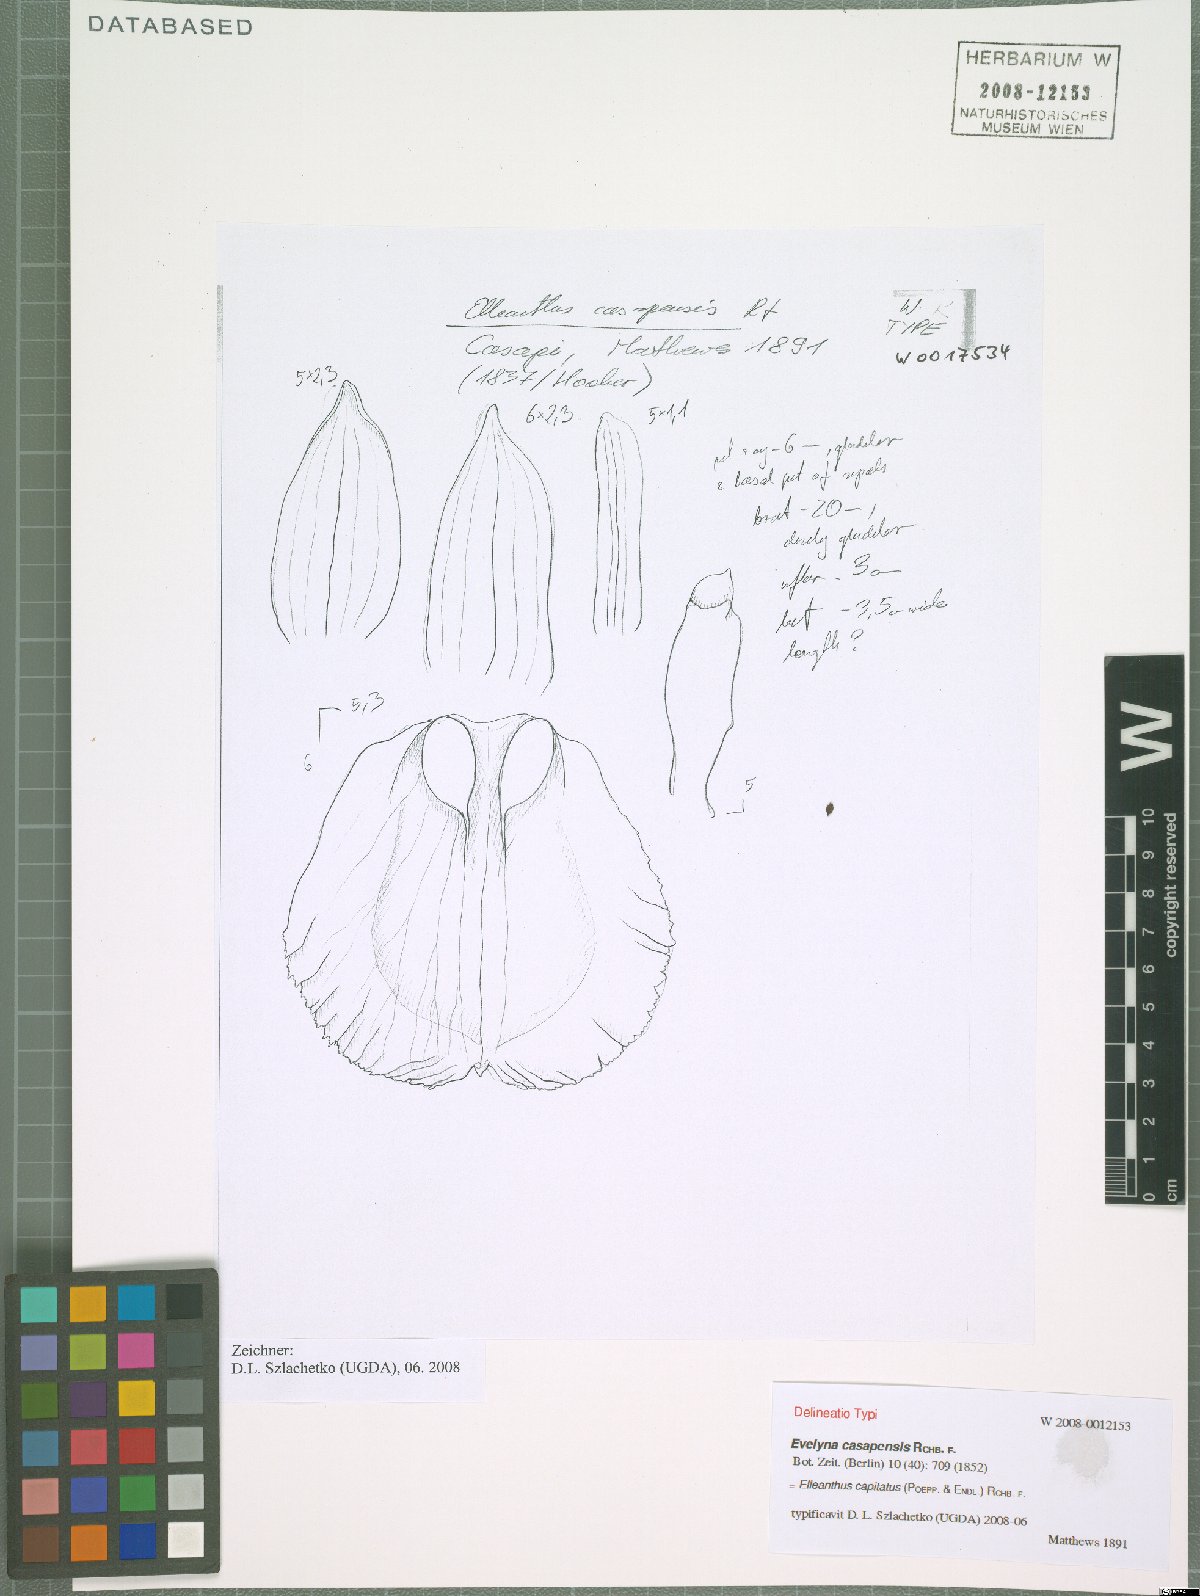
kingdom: Plantae
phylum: Tracheophyta
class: Liliopsida
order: Asparagales
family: Orchidaceae
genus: Elleanthus
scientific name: Elleanthus capitatus
